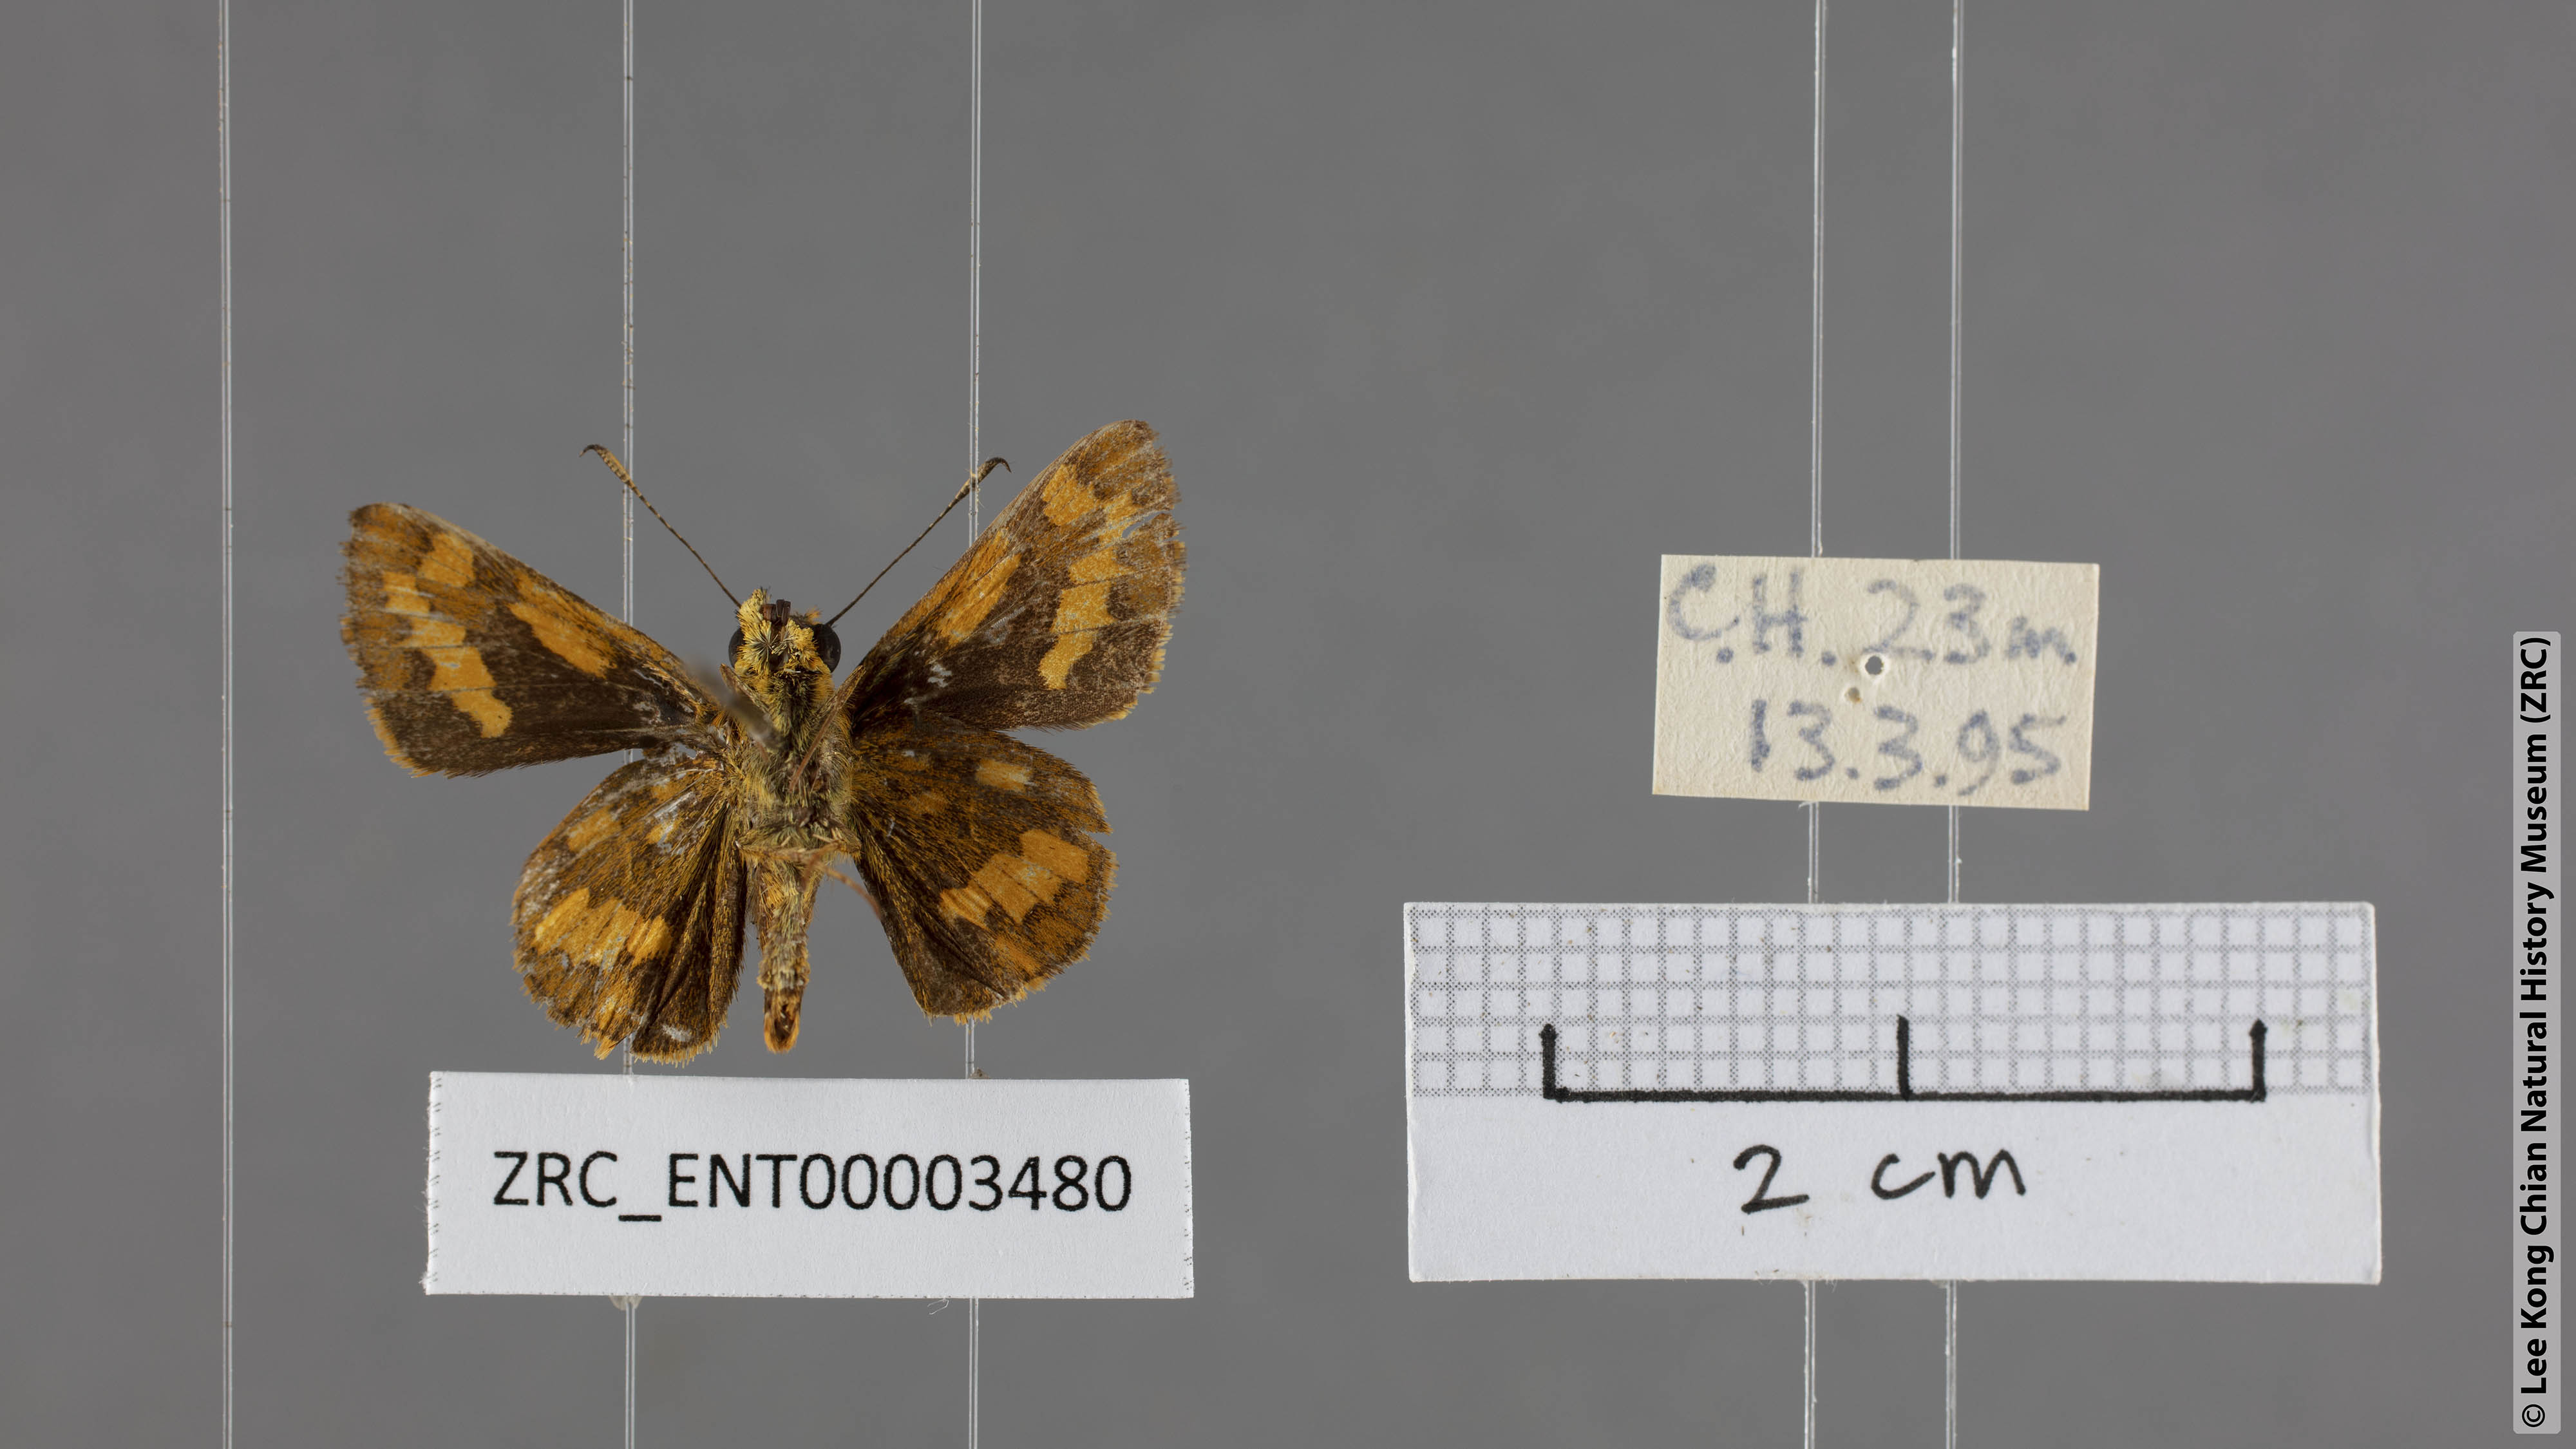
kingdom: Animalia
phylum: Arthropoda
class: Insecta
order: Lepidoptera
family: Hesperiidae
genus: Potanthus
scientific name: Potanthus omaha
